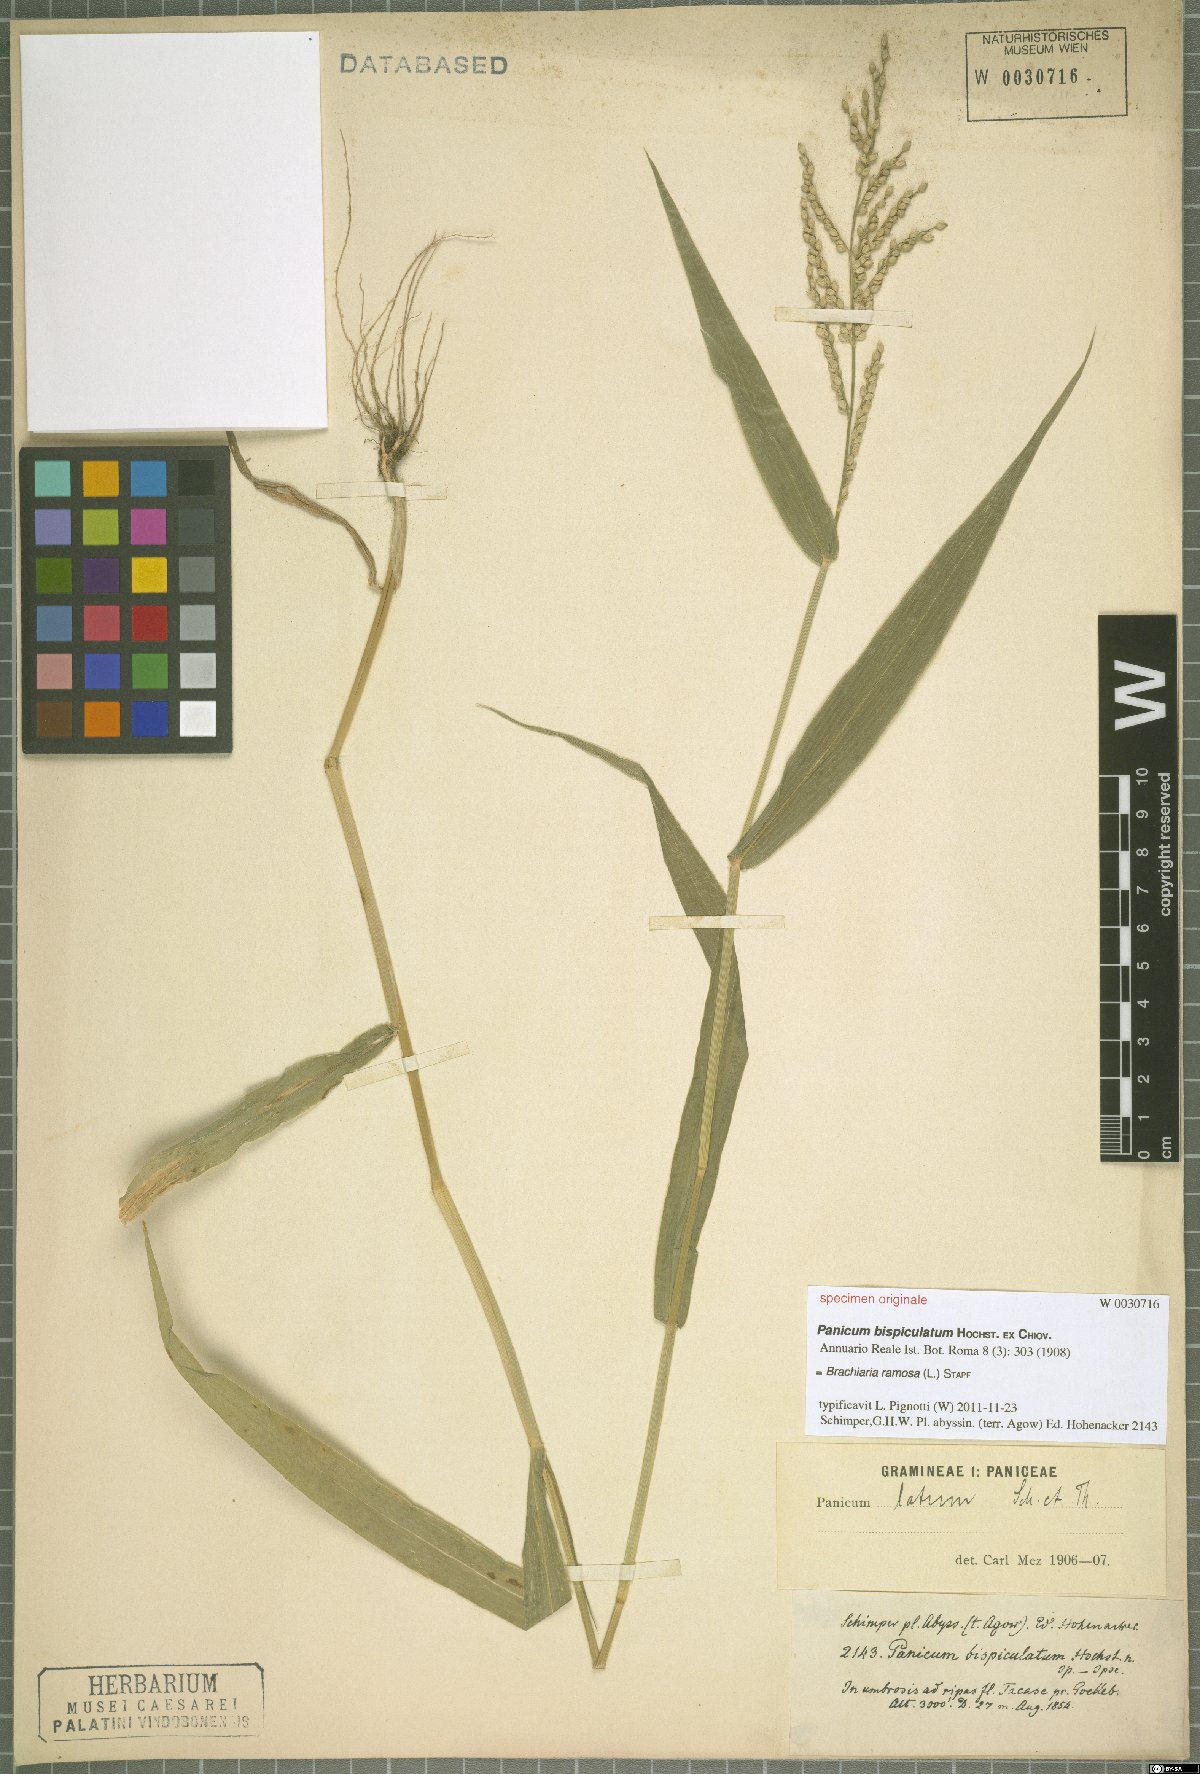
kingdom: Plantae
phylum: Tracheophyta
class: Liliopsida
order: Poales
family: Poaceae
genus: Urochloa
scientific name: Urochloa ramosa
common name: Browntop millet
